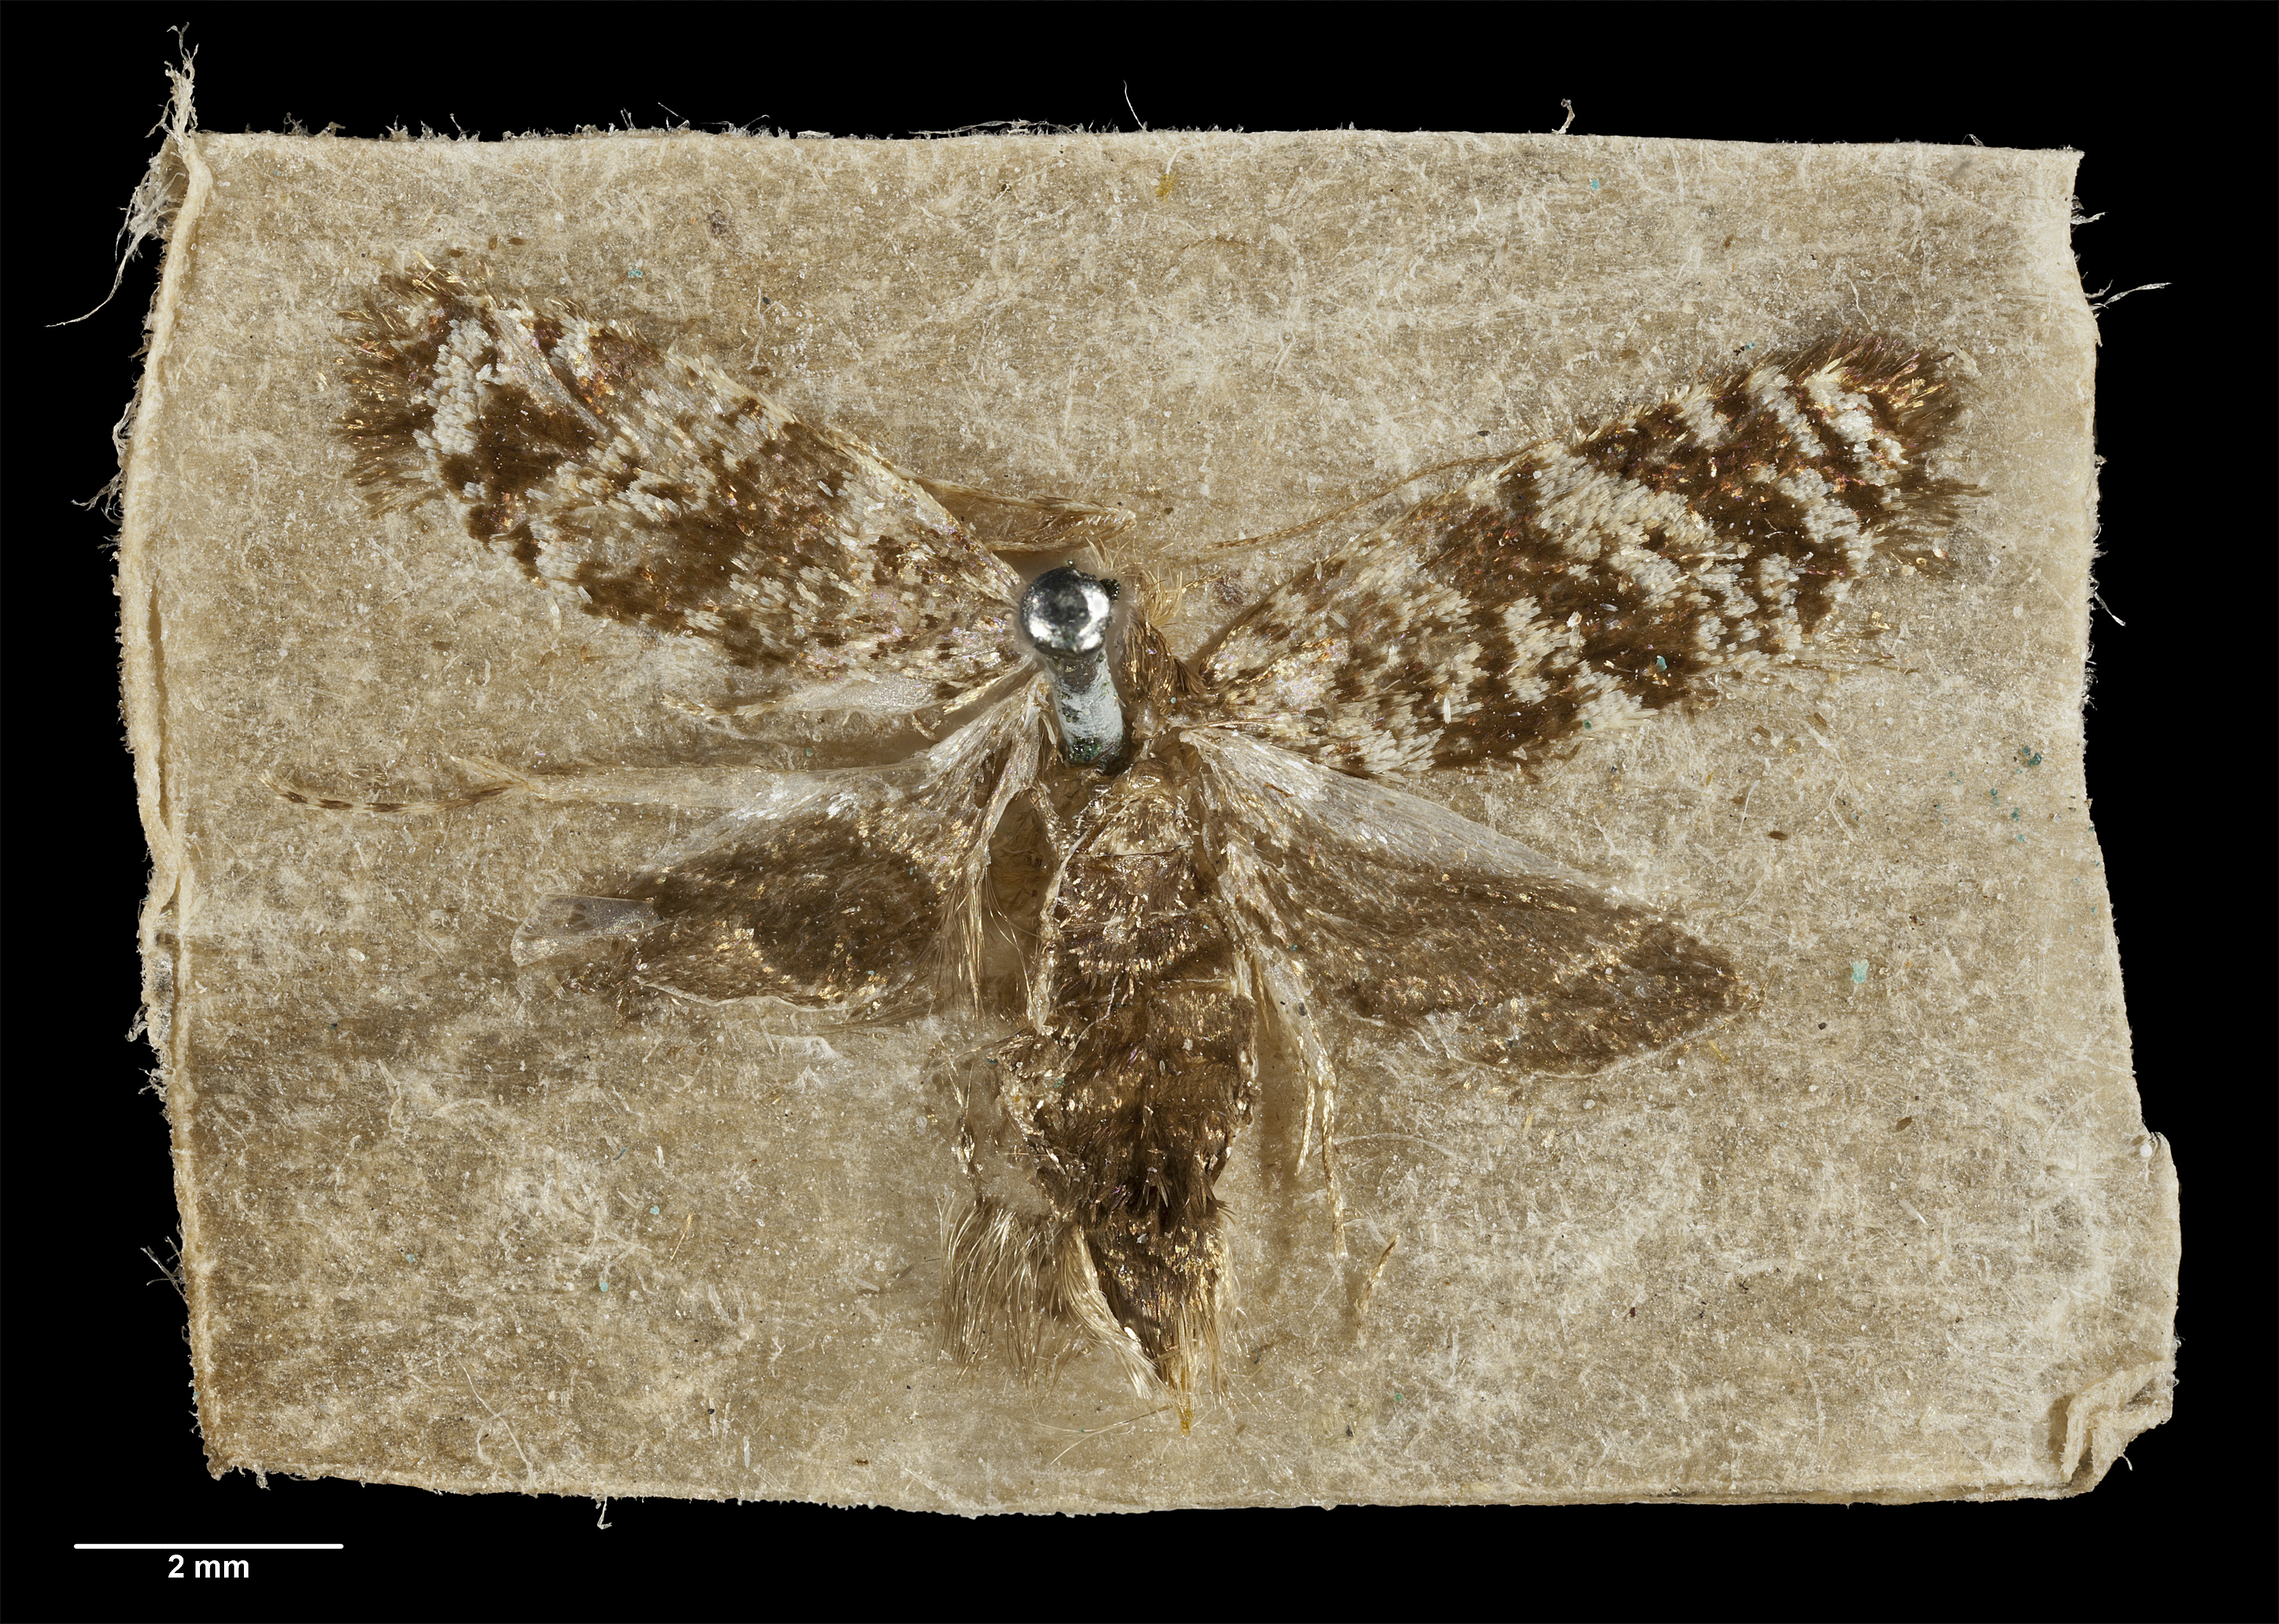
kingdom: Animalia
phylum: Arthropoda
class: Insecta
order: Lepidoptera
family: Psychidae
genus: Mallobathra
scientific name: Mallobathra abyssina
